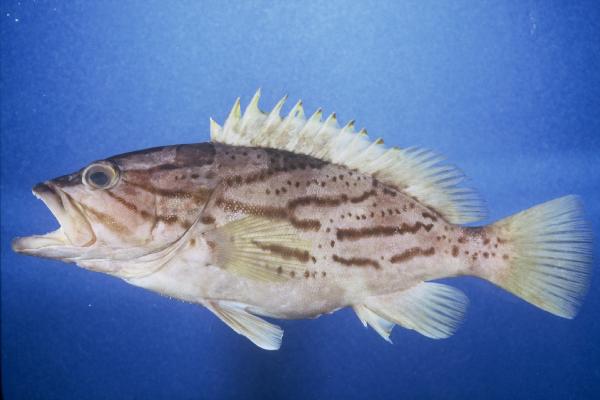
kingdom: Animalia
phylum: Chordata
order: Perciformes
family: Serranidae
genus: Epinephelus
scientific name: Epinephelus morrhua
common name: Comet grouper
